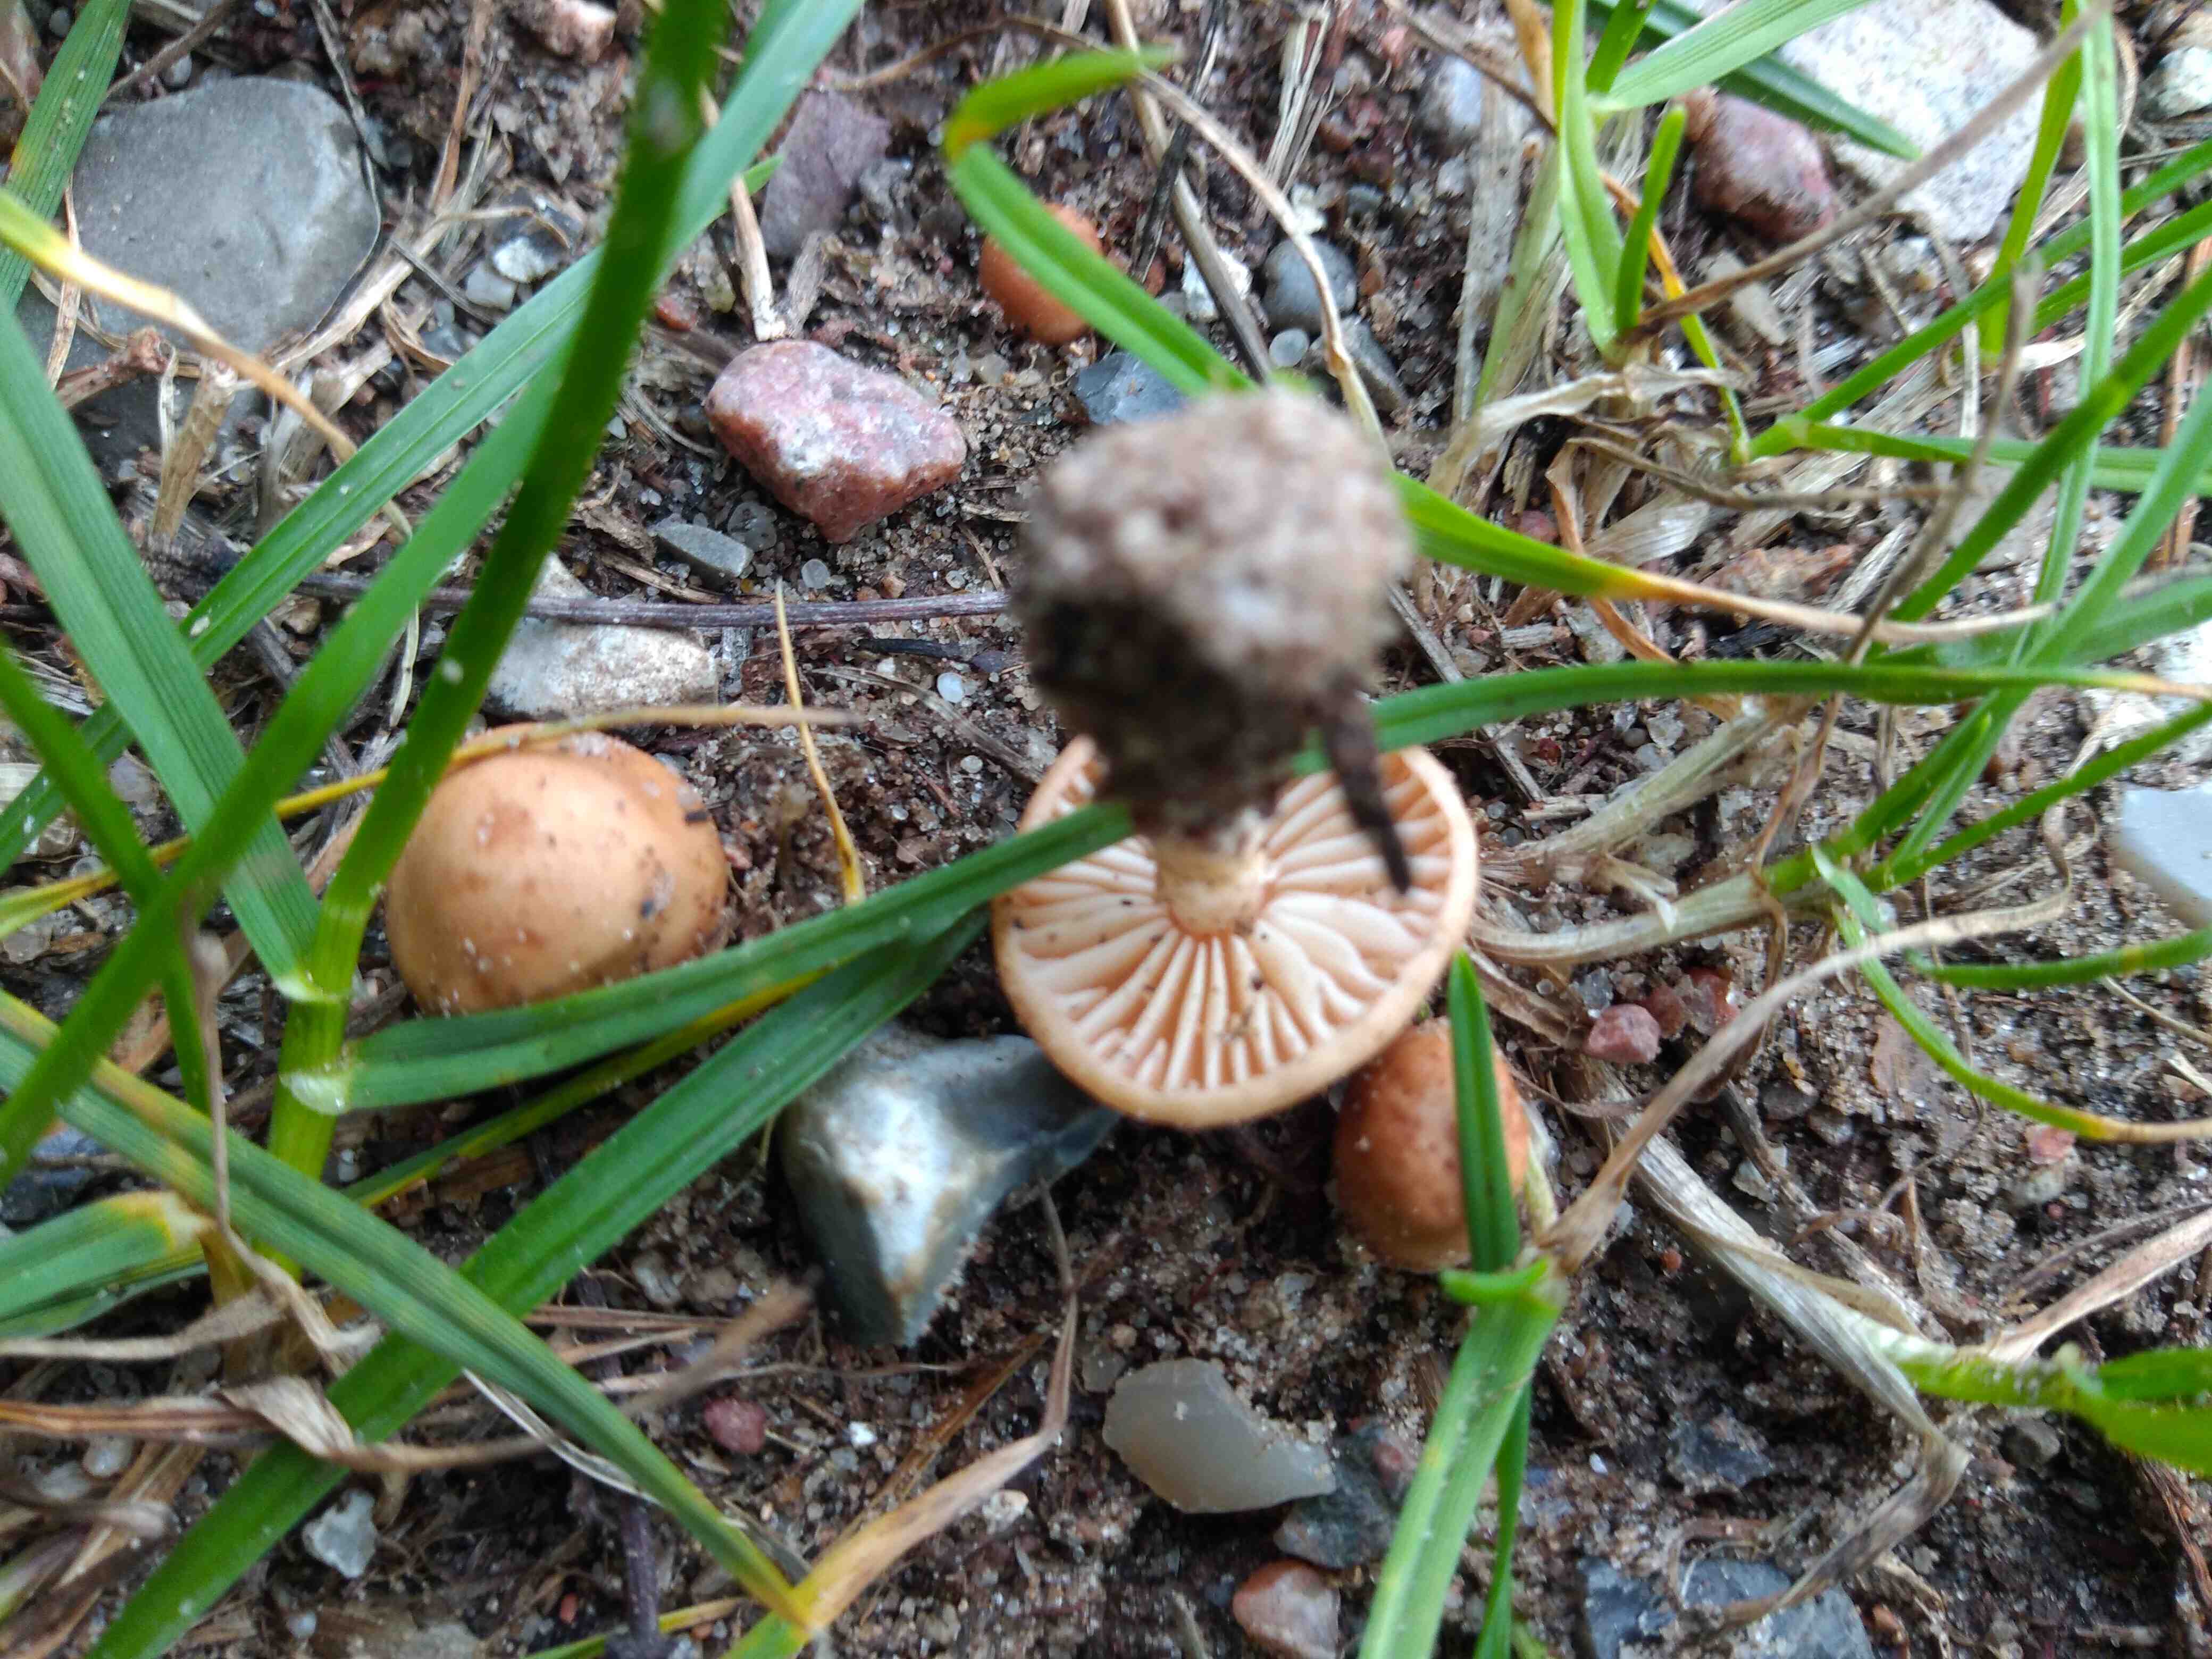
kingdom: Fungi
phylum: Basidiomycota
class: Agaricomycetes
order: Agaricales
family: Marasmiaceae
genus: Marasmius
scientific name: Marasmius oreades
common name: elledans-bruskhat
